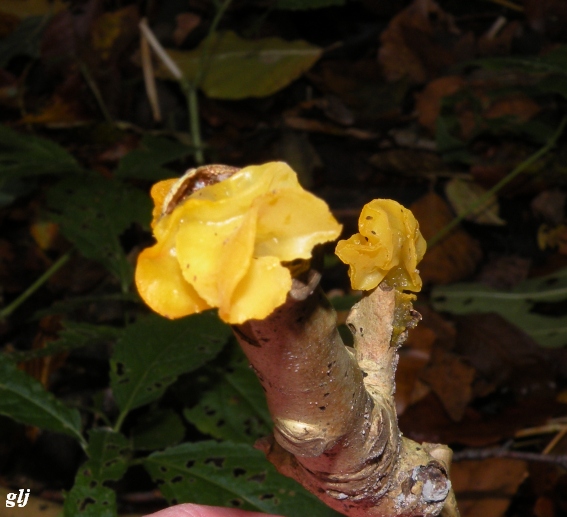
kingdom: Fungi
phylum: Basidiomycota
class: Tremellomycetes
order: Tremellales
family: Tremellaceae
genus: Tremella
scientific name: Tremella mesenterica
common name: gul bævresvamp
